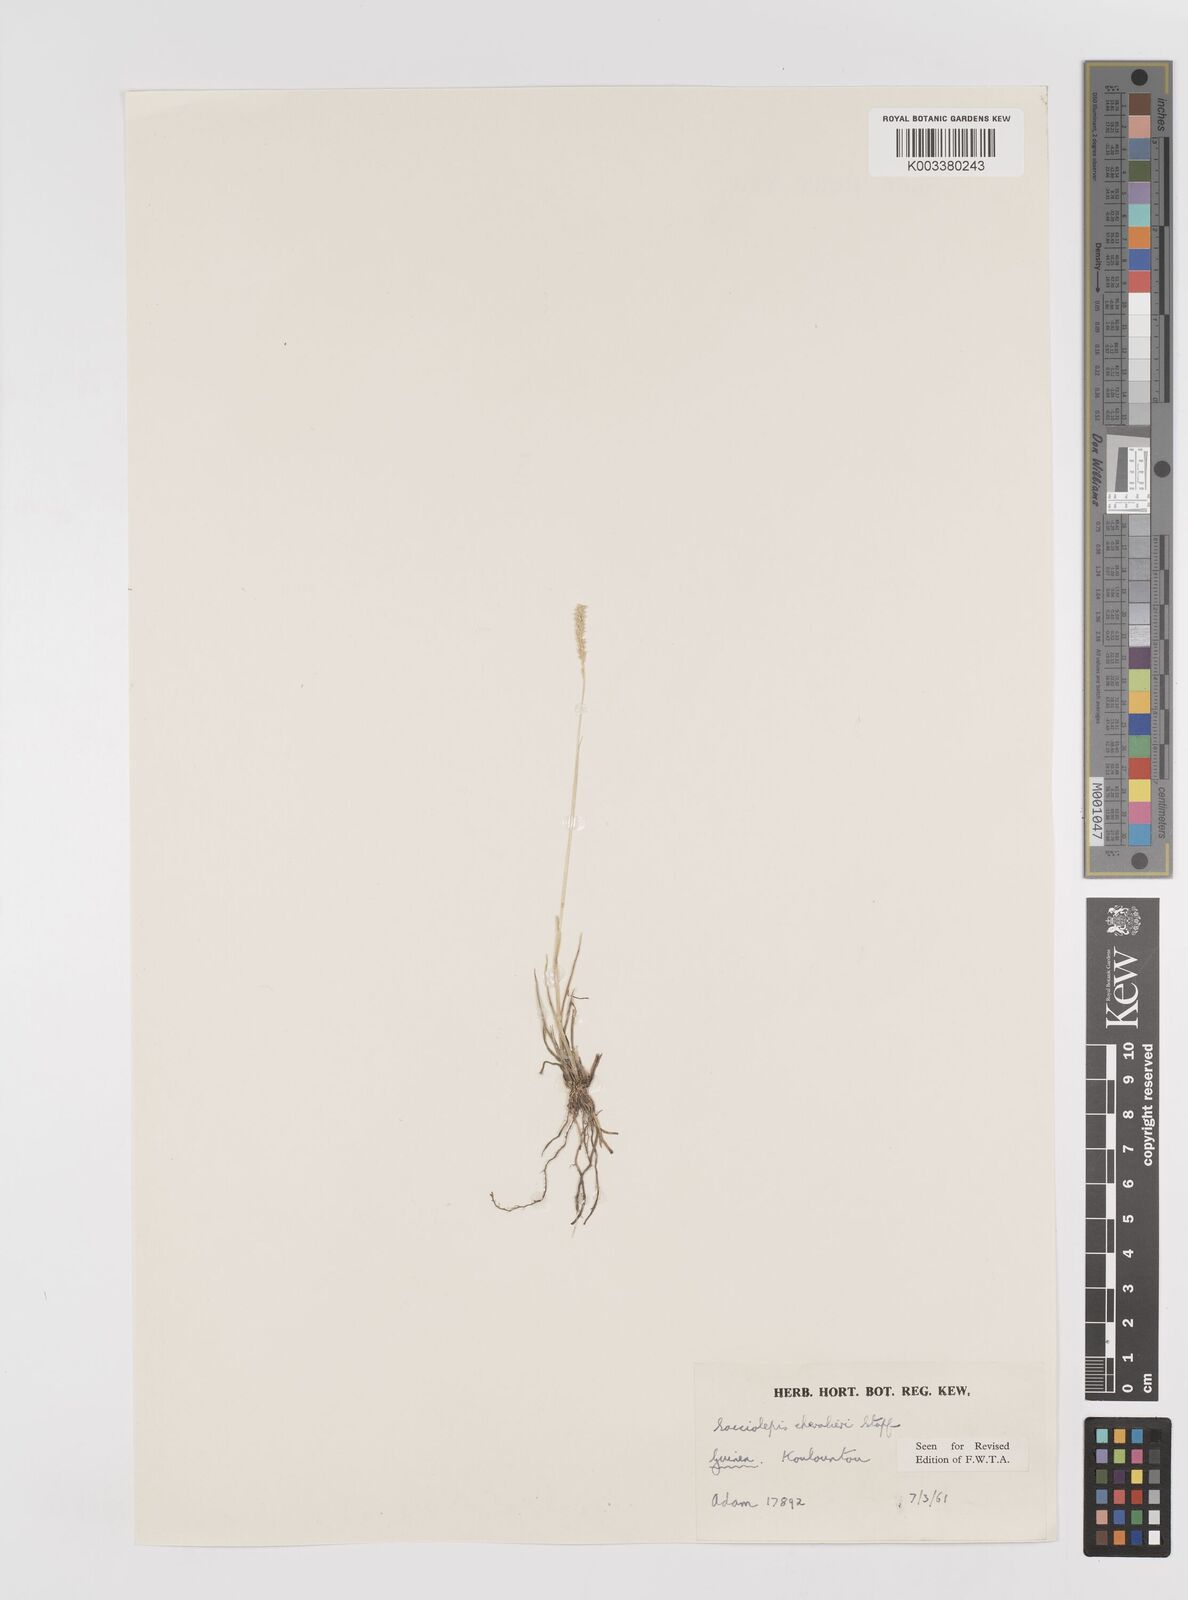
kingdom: Plantae
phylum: Tracheophyta
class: Liliopsida
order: Poales
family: Poaceae
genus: Sacciolepis
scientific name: Sacciolepis chevalieri
